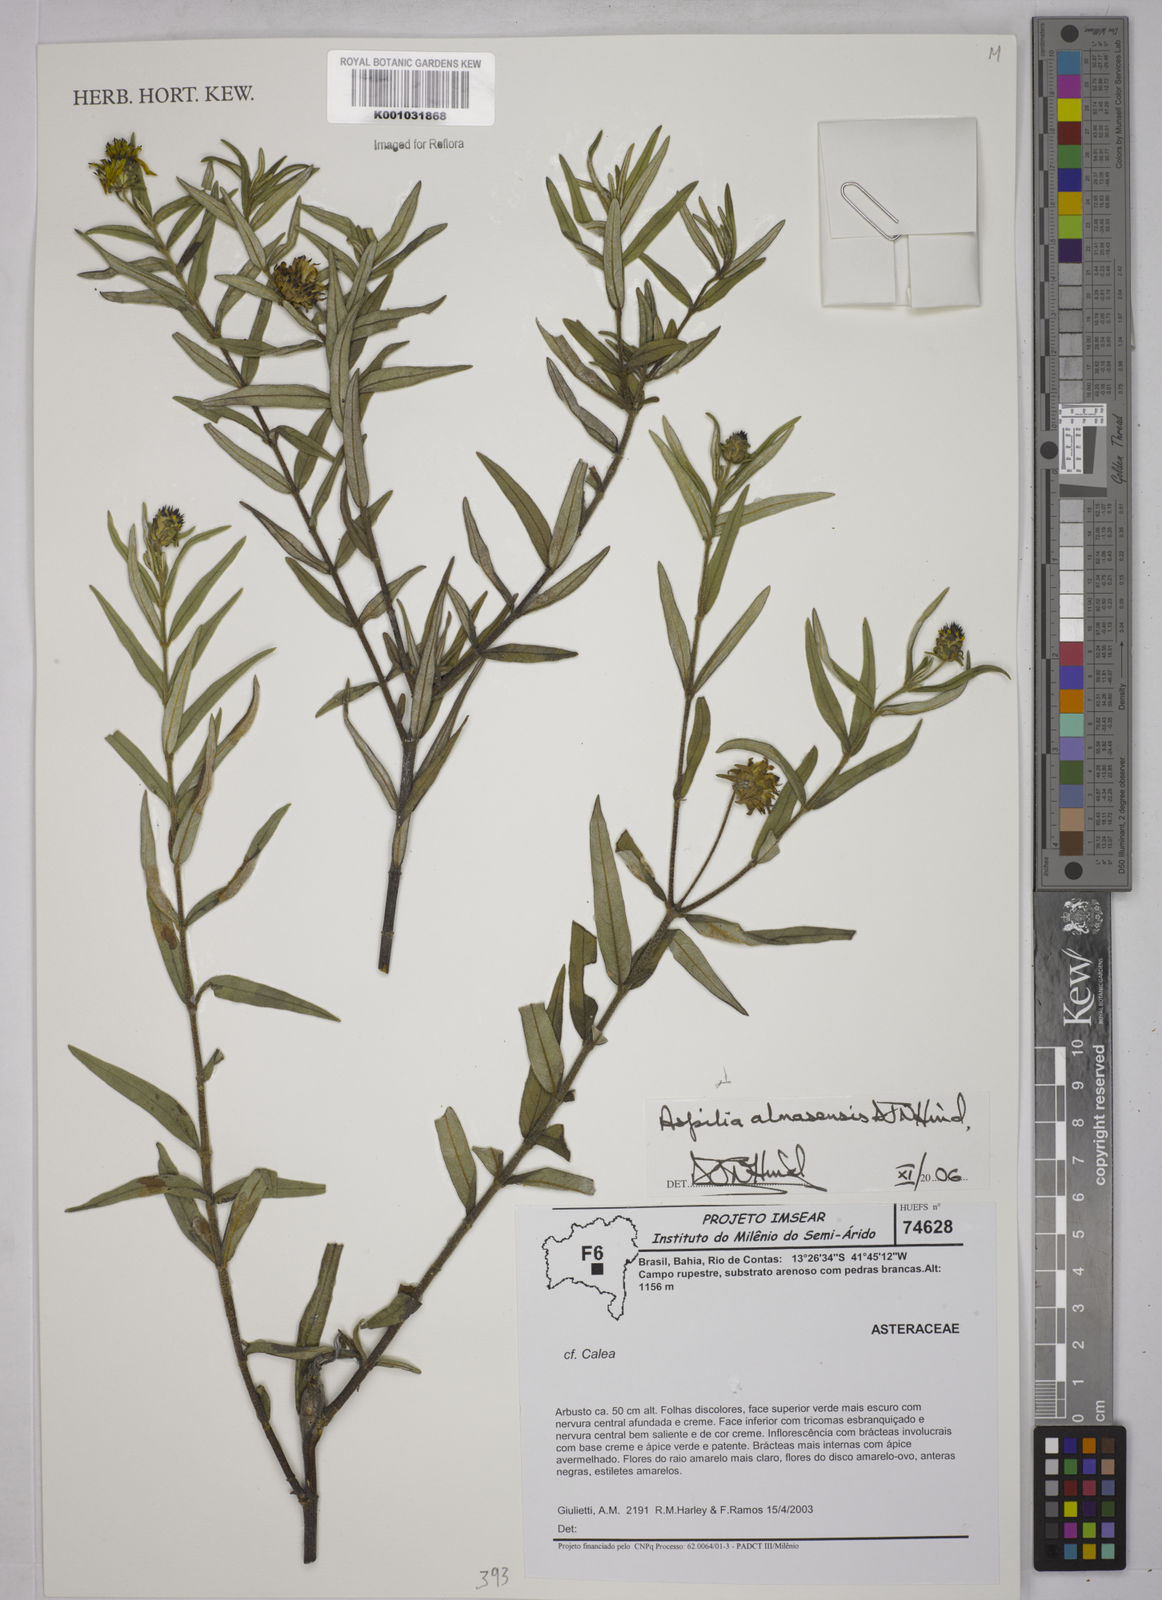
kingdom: Plantae
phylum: Tracheophyta
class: Magnoliopsida
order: Asterales
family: Asteraceae
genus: Aspilia
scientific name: Aspilia almasensis
